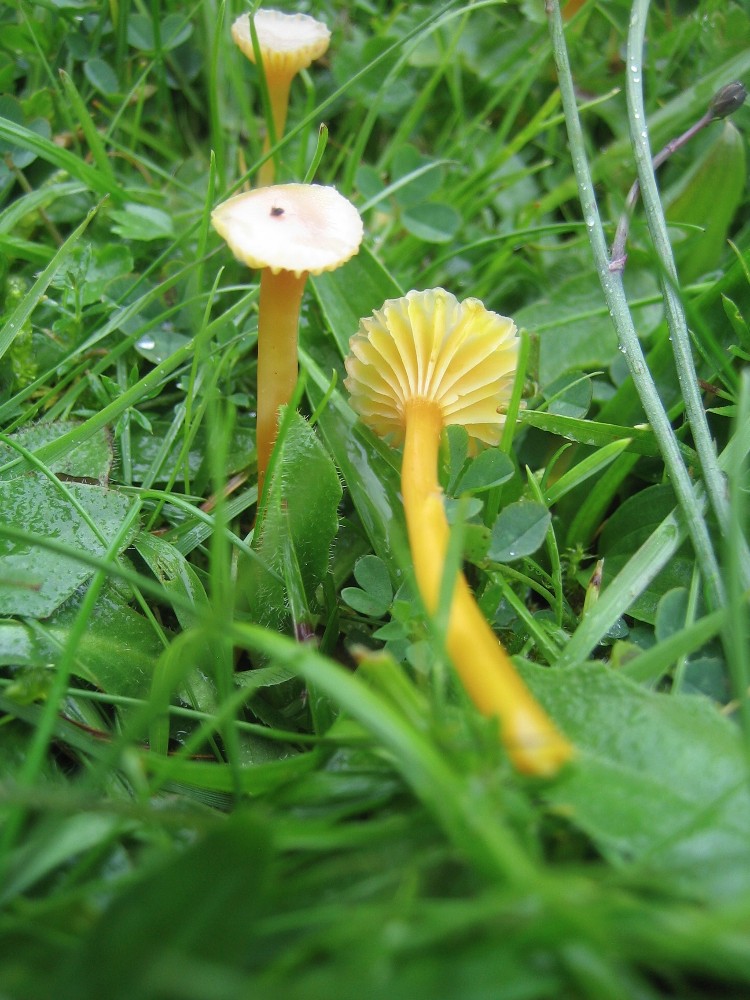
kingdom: Fungi
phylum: Basidiomycota
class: Agaricomycetes
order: Agaricales
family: Hygrophoraceae
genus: Hygrocybe
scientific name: Hygrocybe ceracea
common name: voksgul vokshat
